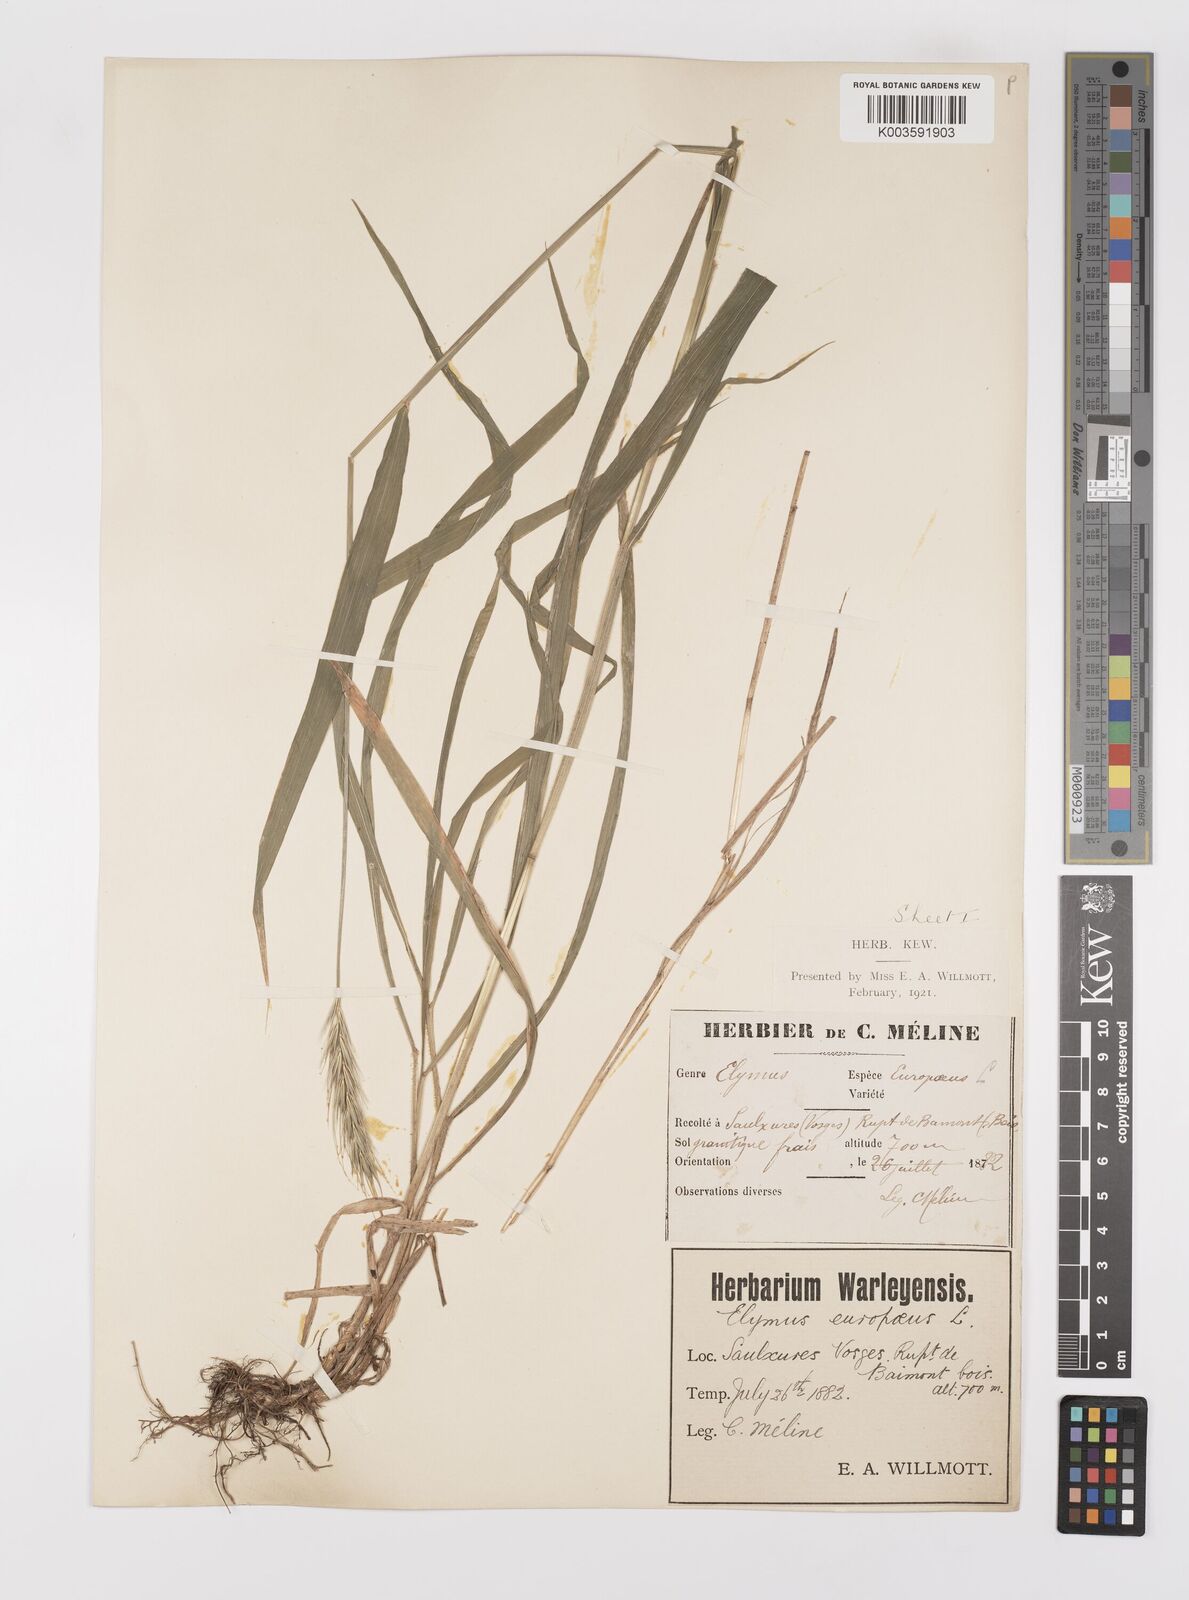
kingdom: Plantae
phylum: Tracheophyta
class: Liliopsida
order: Poales
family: Poaceae
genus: Hordelymus
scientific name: Hordelymus europaeus
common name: Wood-barley
